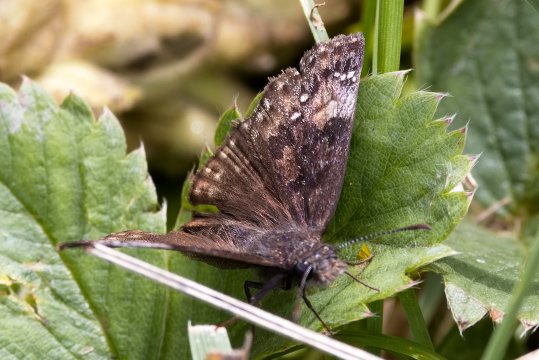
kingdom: Animalia
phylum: Arthropoda
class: Insecta
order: Lepidoptera
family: Hesperiidae
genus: Gesta
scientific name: Gesta
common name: Wild Indigo Duskywing
